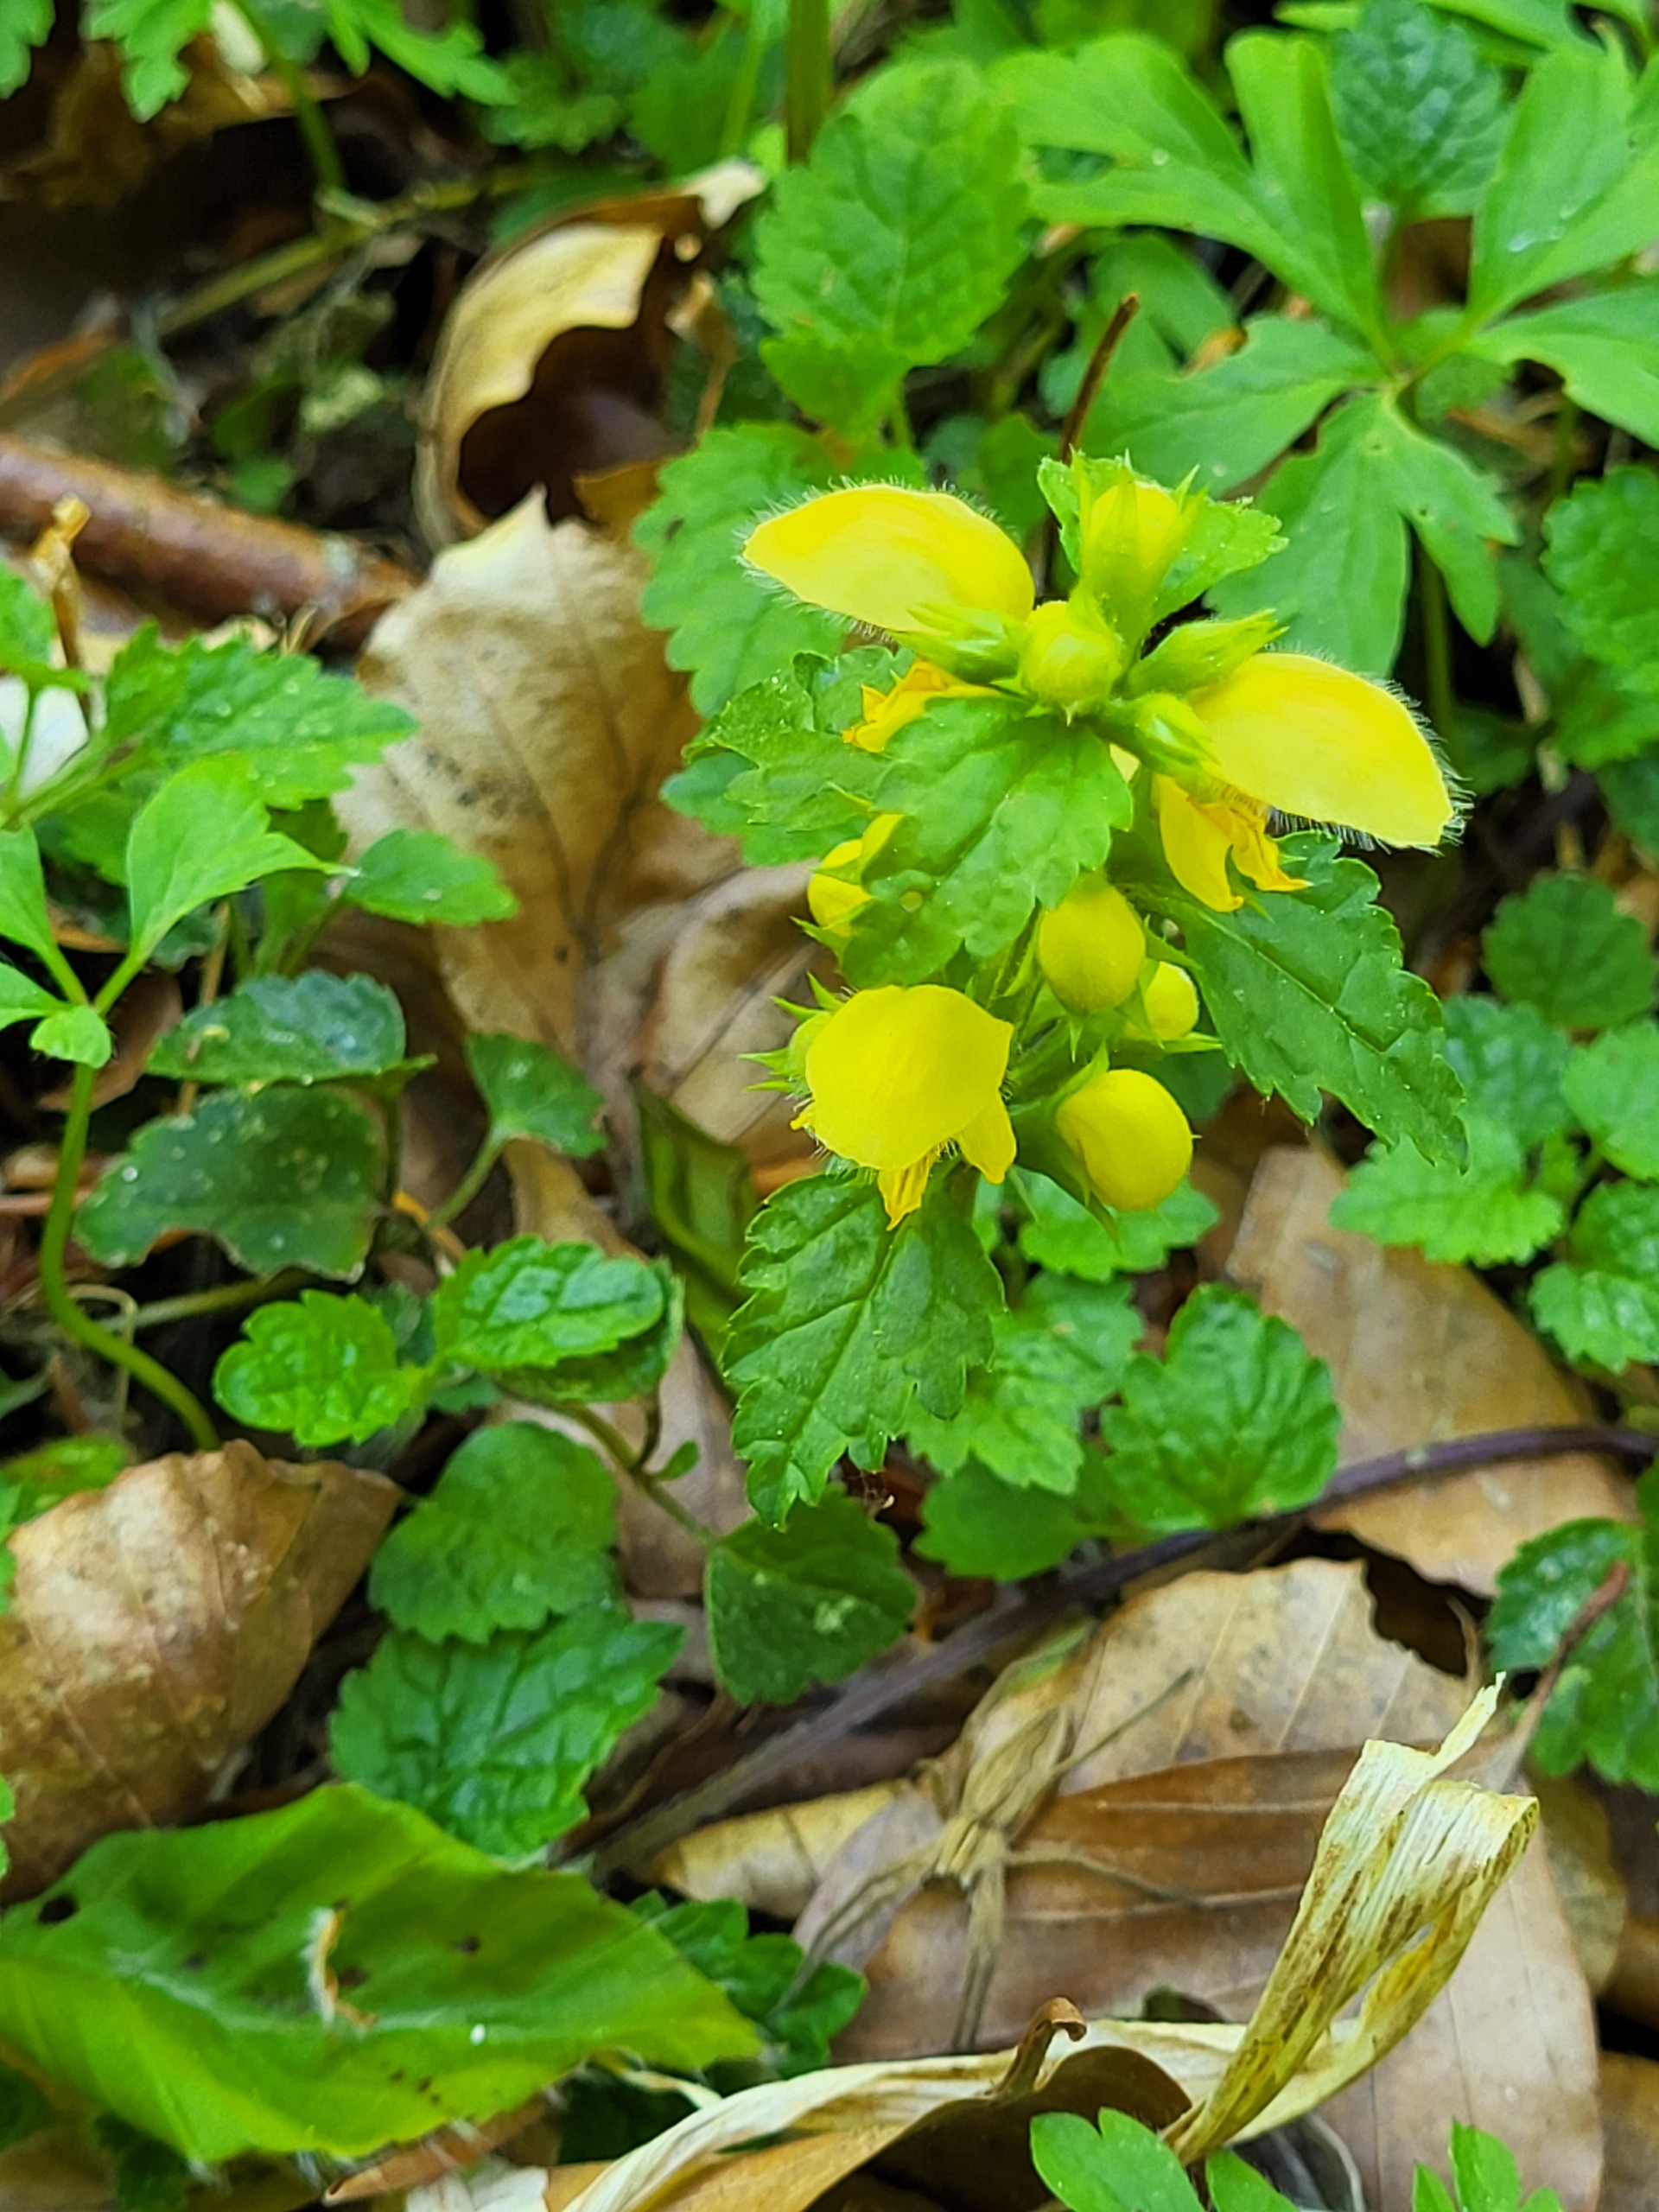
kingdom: Plantae
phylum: Tracheophyta
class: Magnoliopsida
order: Lamiales
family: Lamiaceae
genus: Lamium
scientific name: Lamium galeobdolon
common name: Almindelig guldnælde
